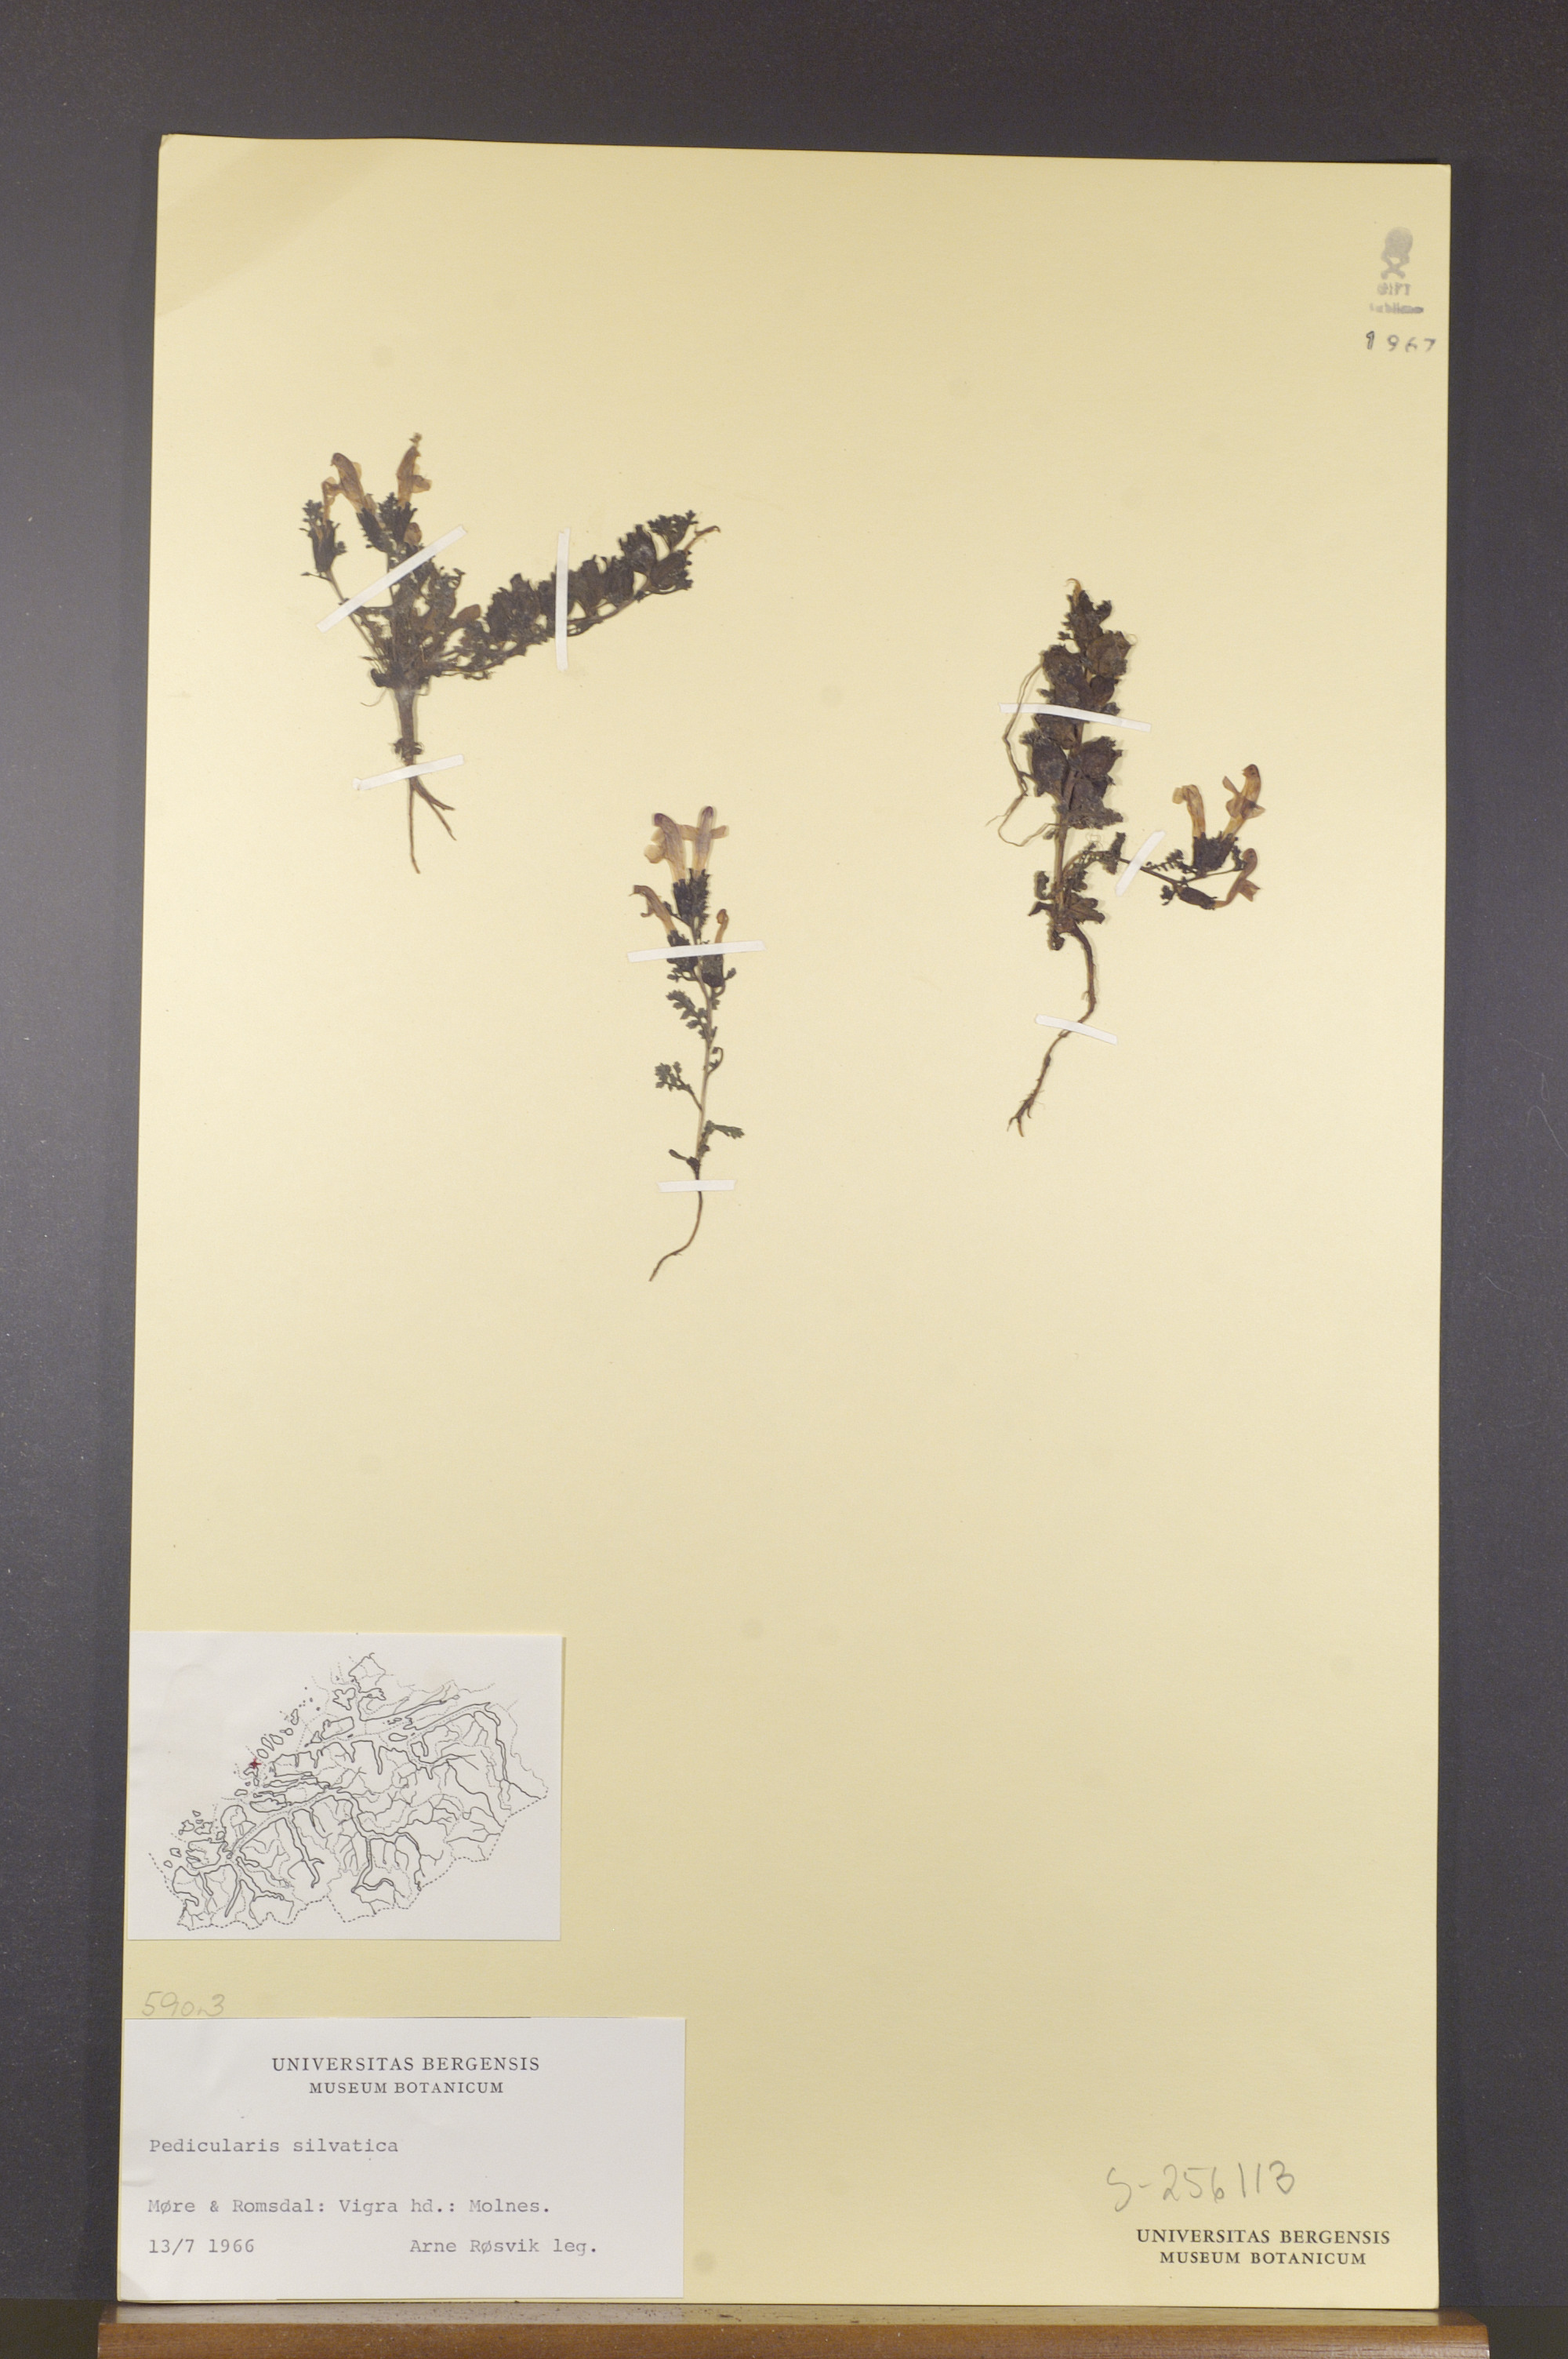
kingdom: Plantae
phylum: Tracheophyta
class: Magnoliopsida
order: Lamiales
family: Orobanchaceae
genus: Pedicularis
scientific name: Pedicularis sylvatica
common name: Lousewort
